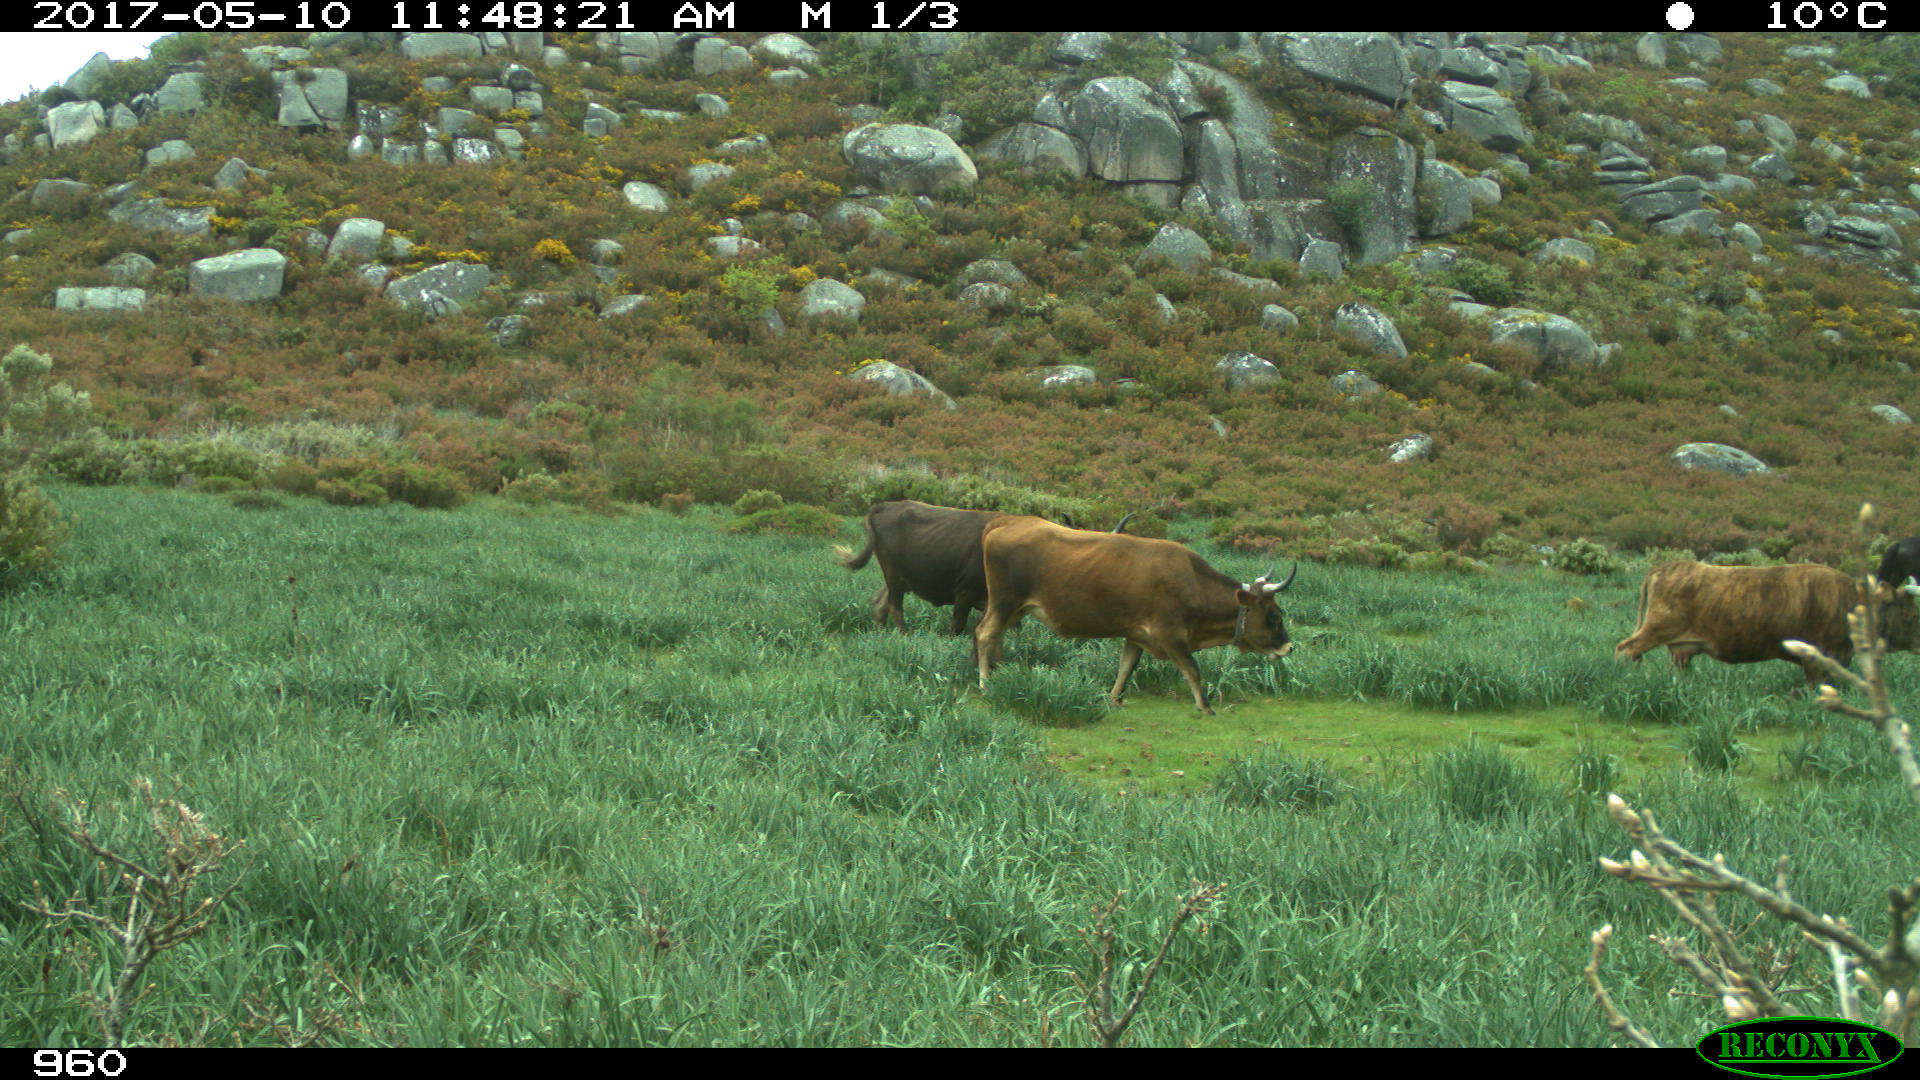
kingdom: Animalia
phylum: Chordata
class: Mammalia
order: Artiodactyla
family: Bovidae
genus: Bos
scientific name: Bos taurus
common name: Domesticated cattle
